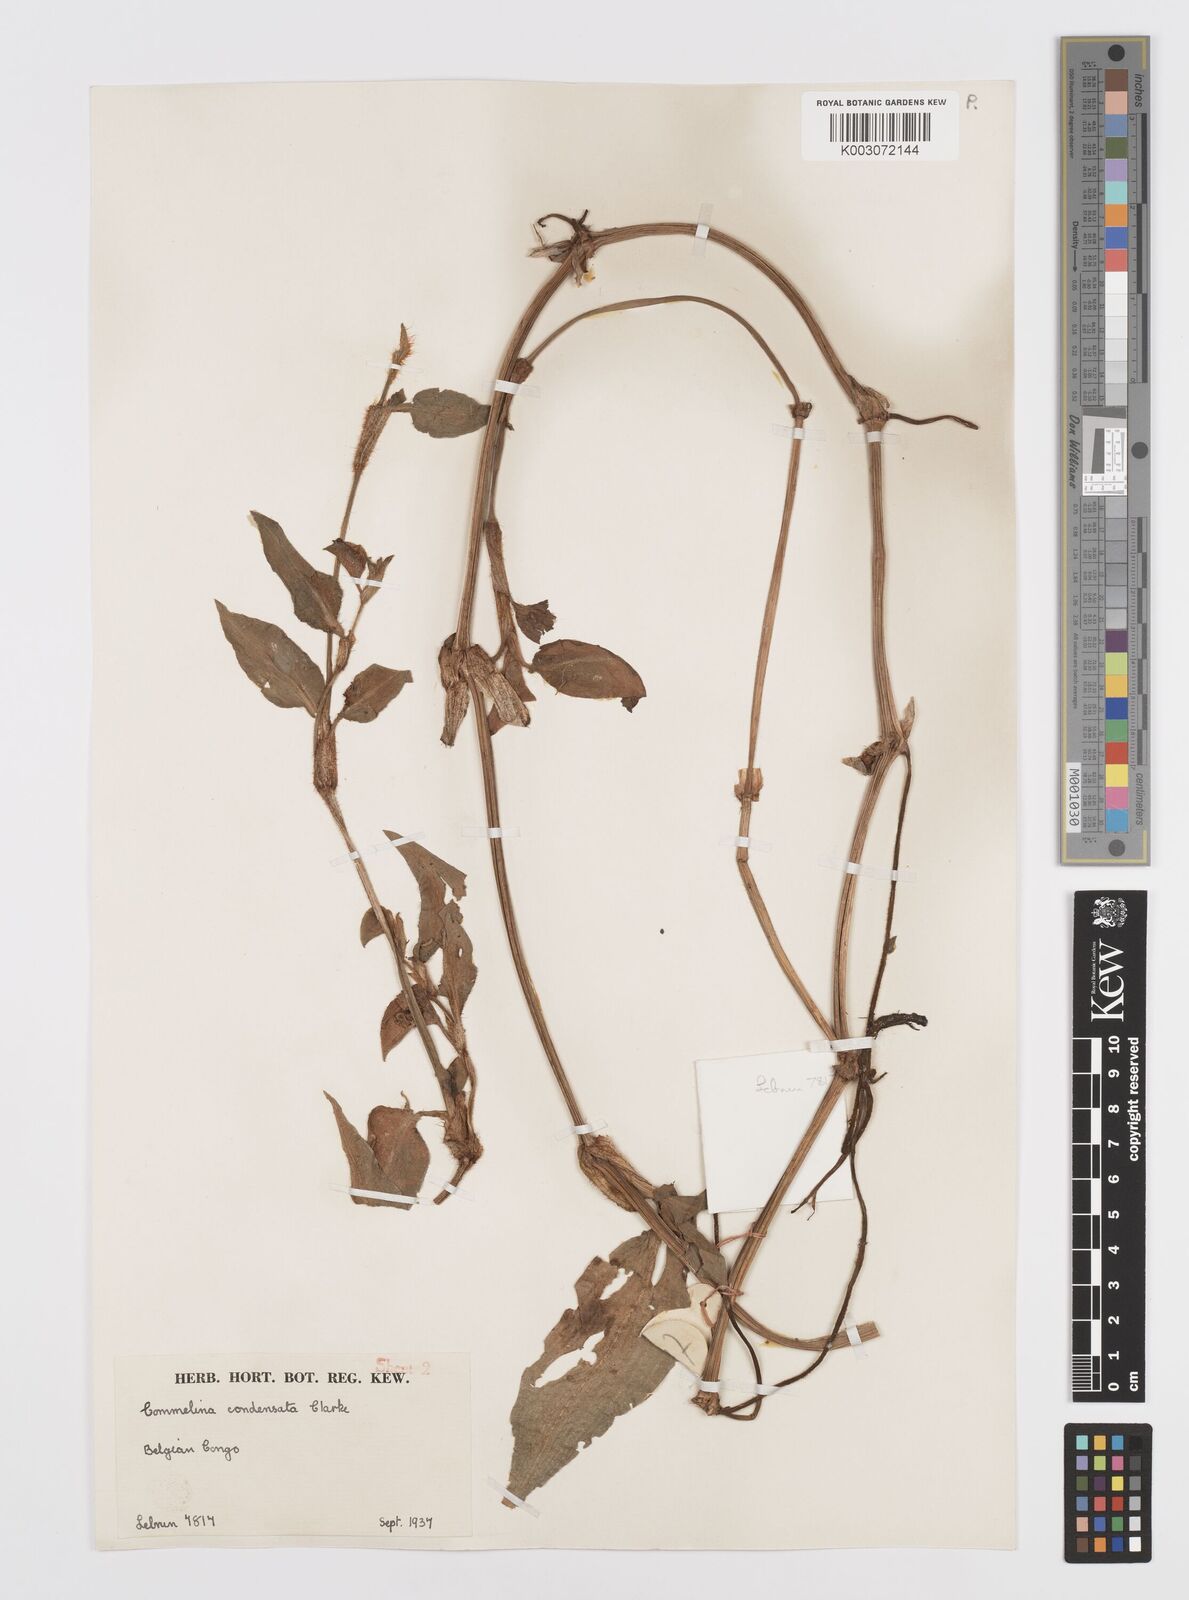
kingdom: Plantae
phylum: Tracheophyta
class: Liliopsida
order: Commelinales
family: Commelinaceae
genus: Commelina
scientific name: Commelina benghalensis
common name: Jio
